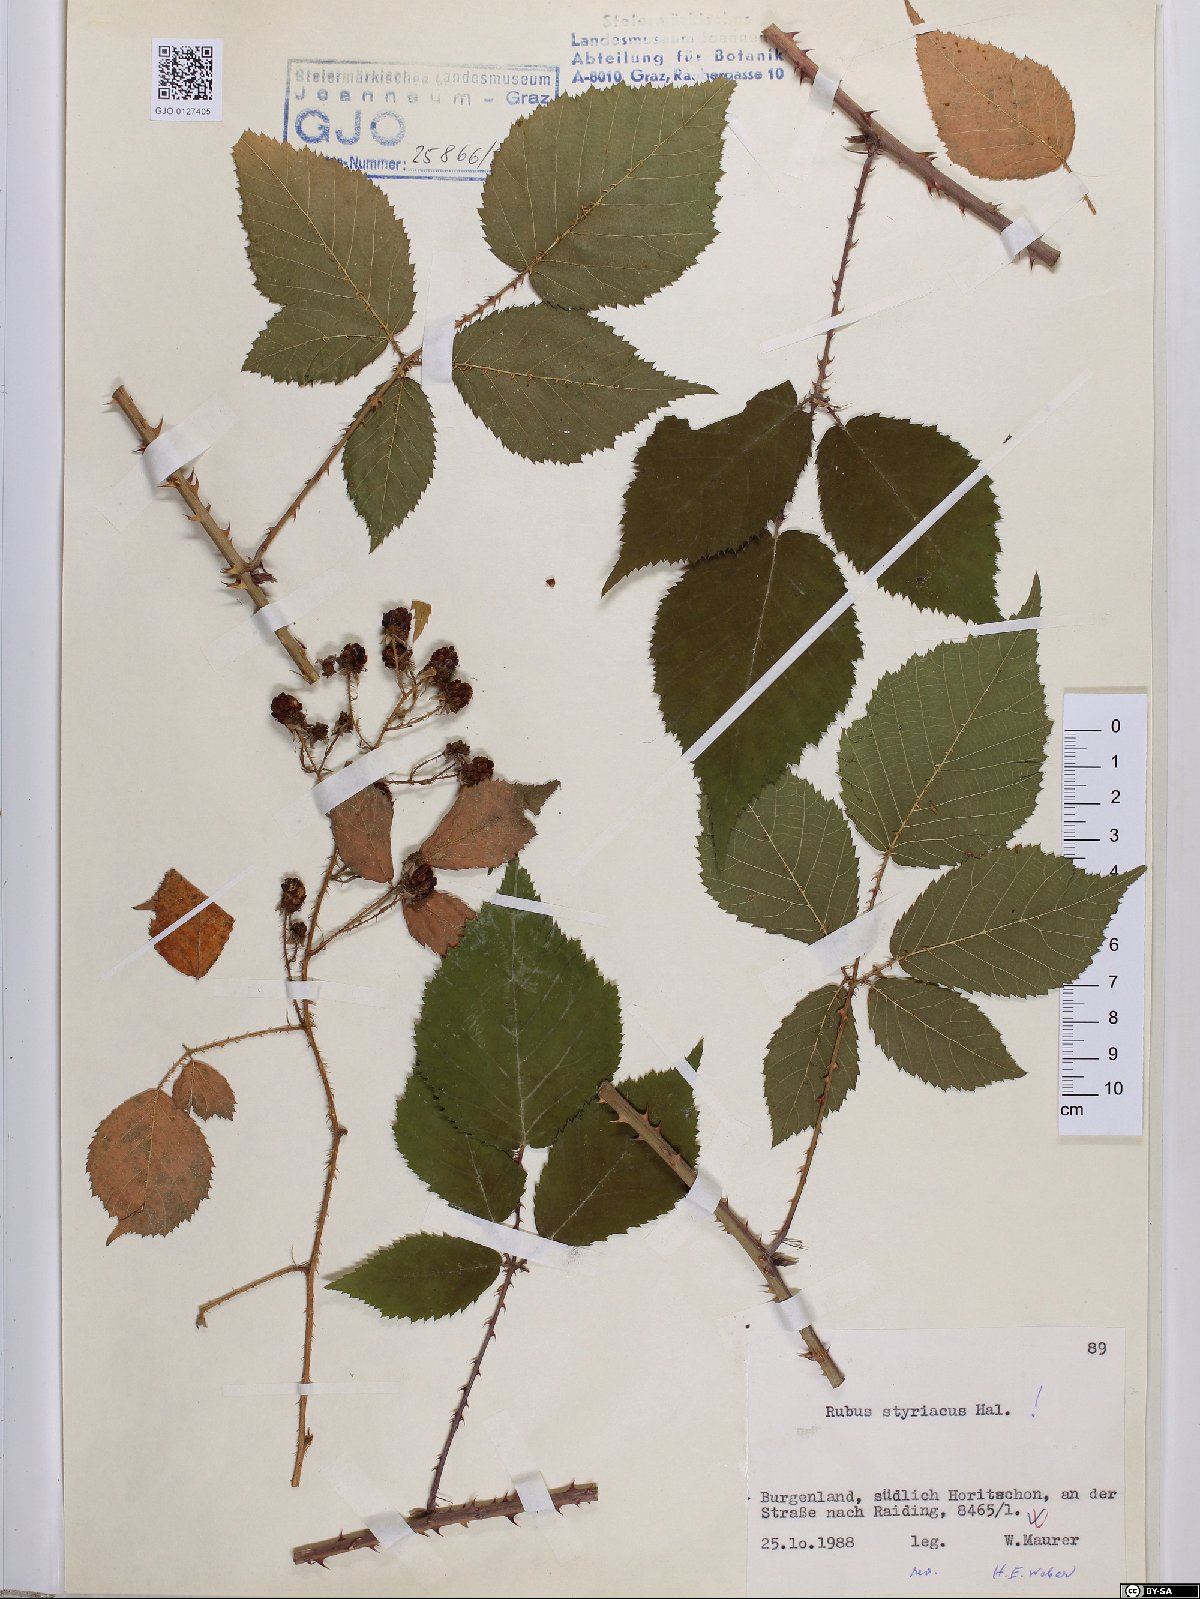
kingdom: Plantae
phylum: Tracheophyta
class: Magnoliopsida
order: Rosales
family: Rosaceae
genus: Rubus
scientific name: Rubus styriacus
